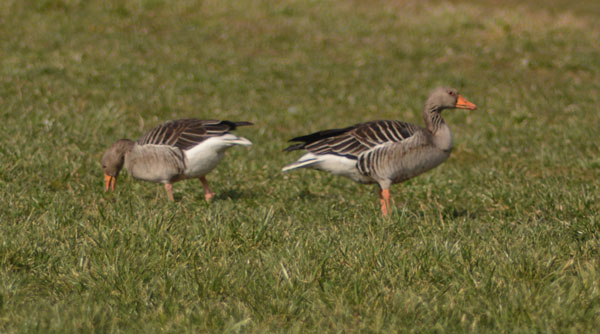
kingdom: Animalia
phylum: Chordata
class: Aves
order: Anseriformes
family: Anatidae
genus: Anser
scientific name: Anser anser
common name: Greylag goose
